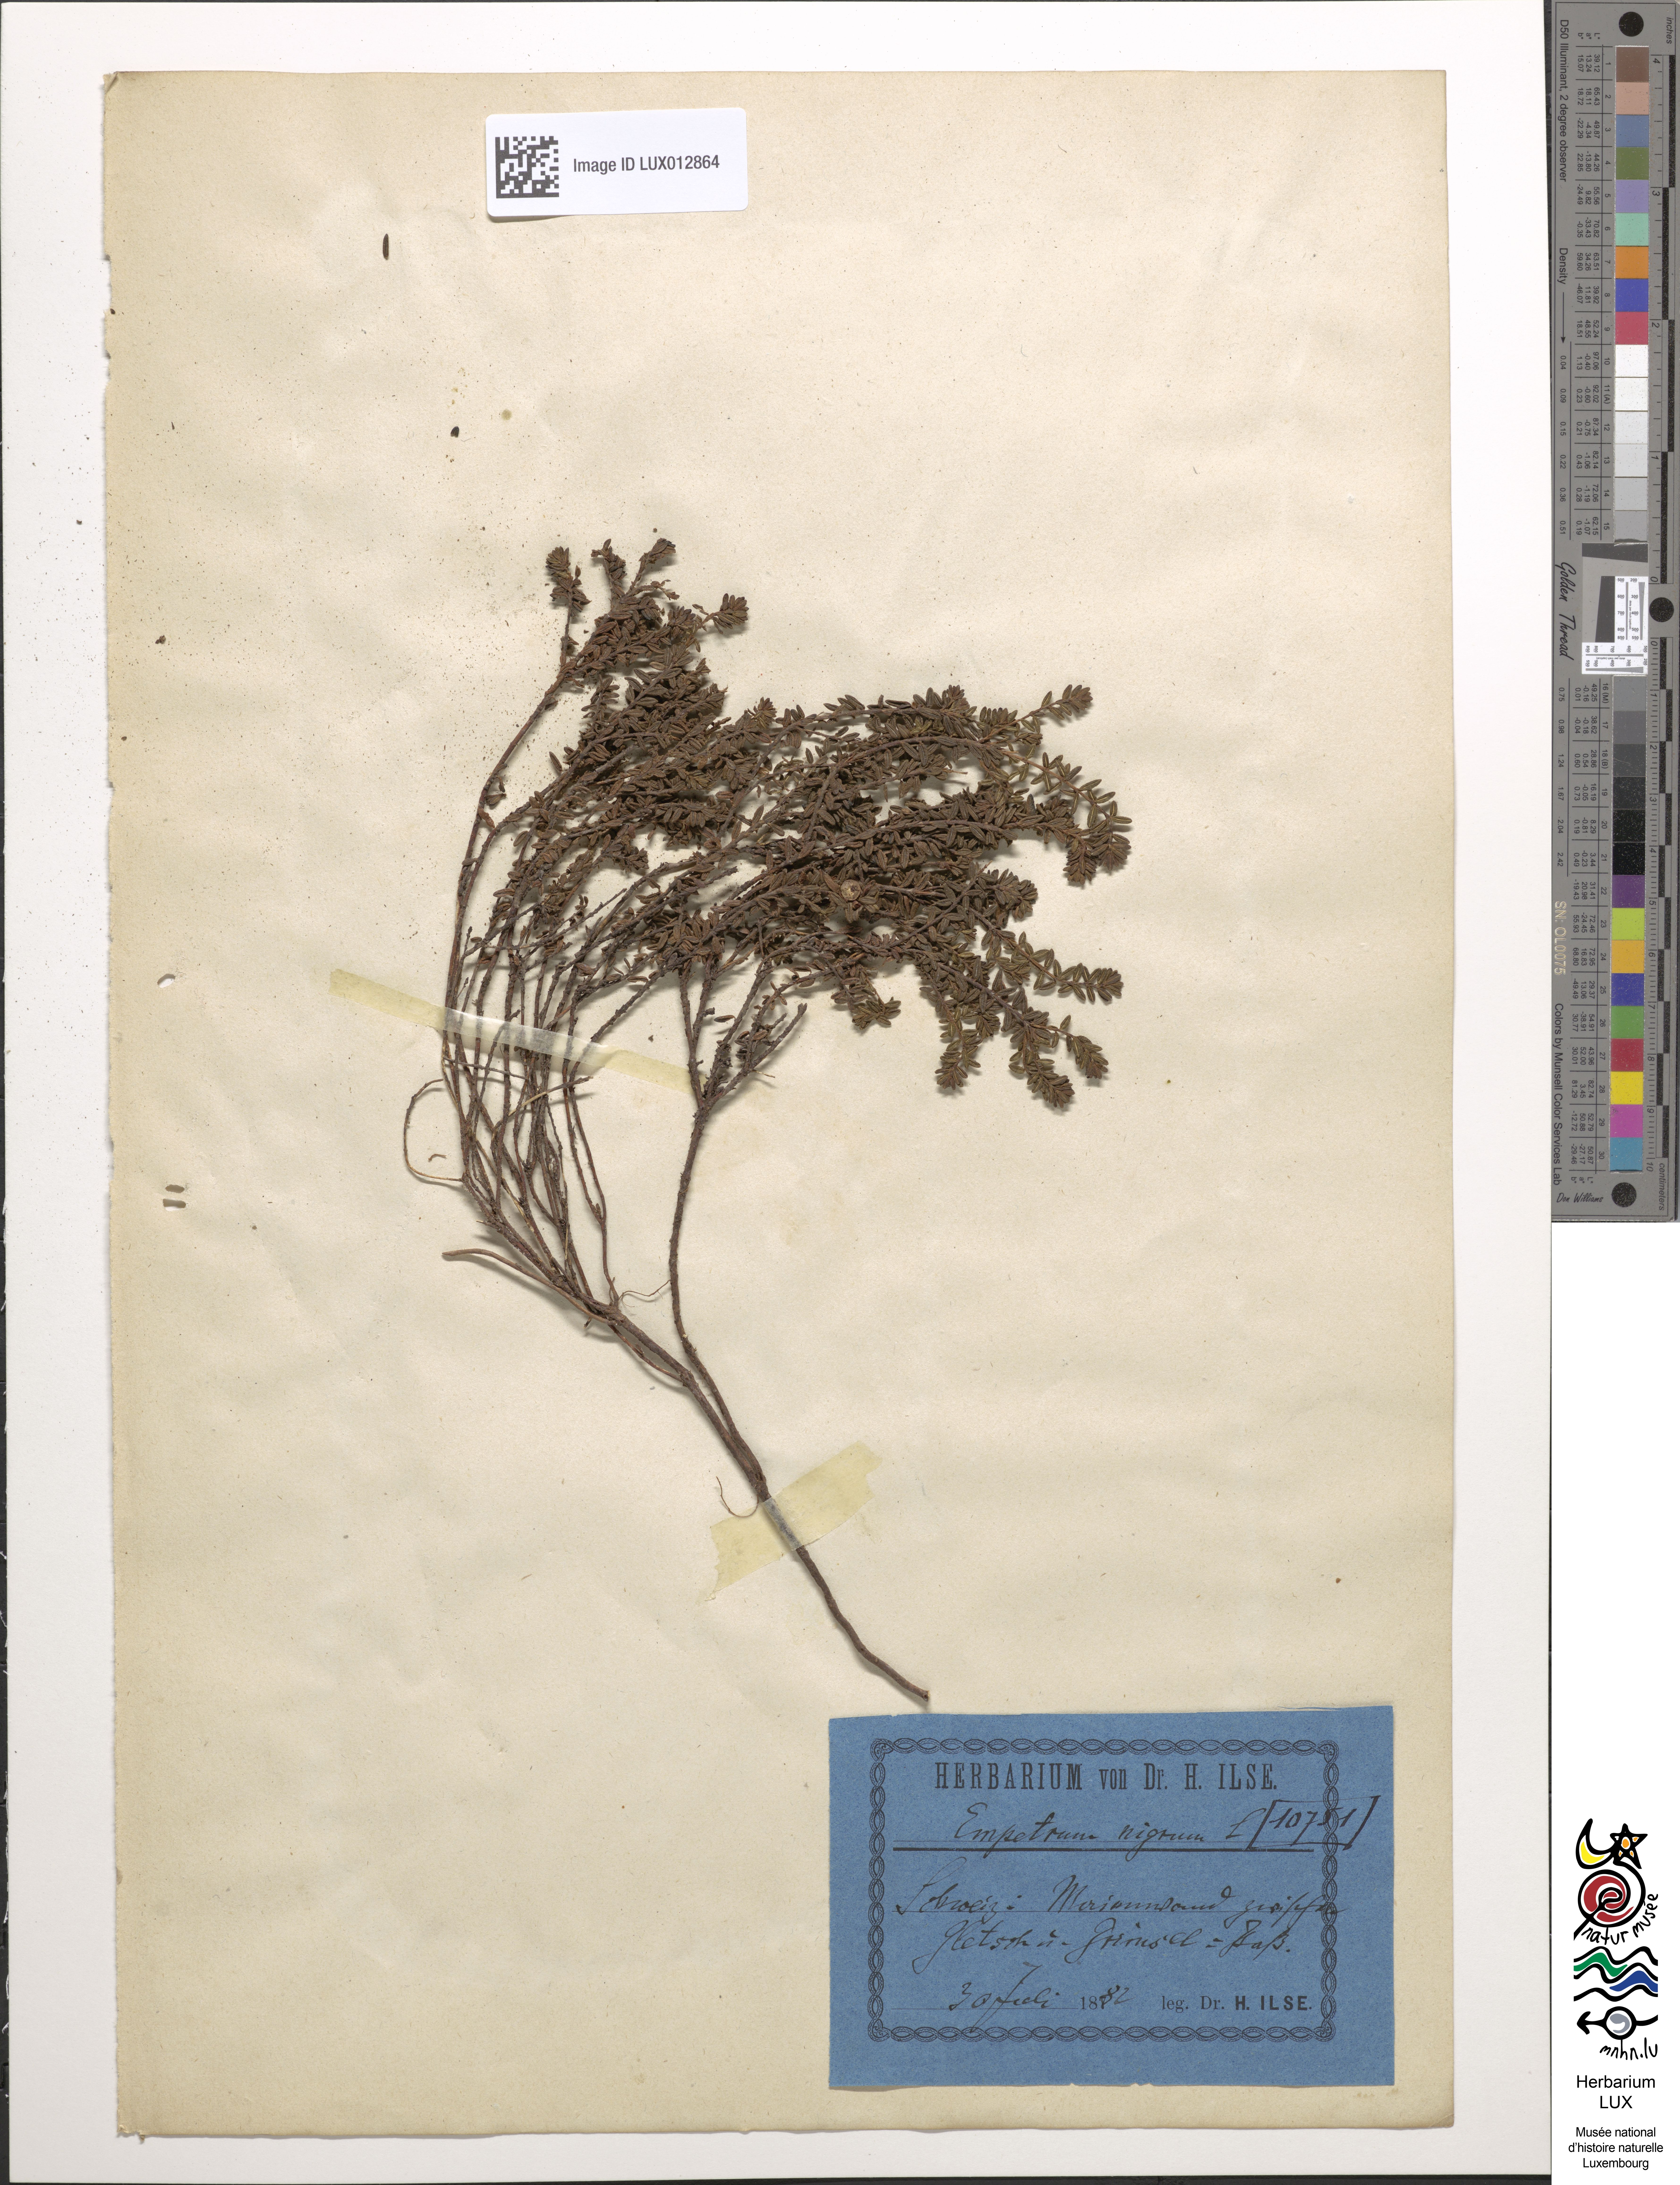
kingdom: Plantae
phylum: Tracheophyta
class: Magnoliopsida
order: Ericales
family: Ericaceae
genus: Empetrum
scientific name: Empetrum nigrum
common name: Black crowberry
